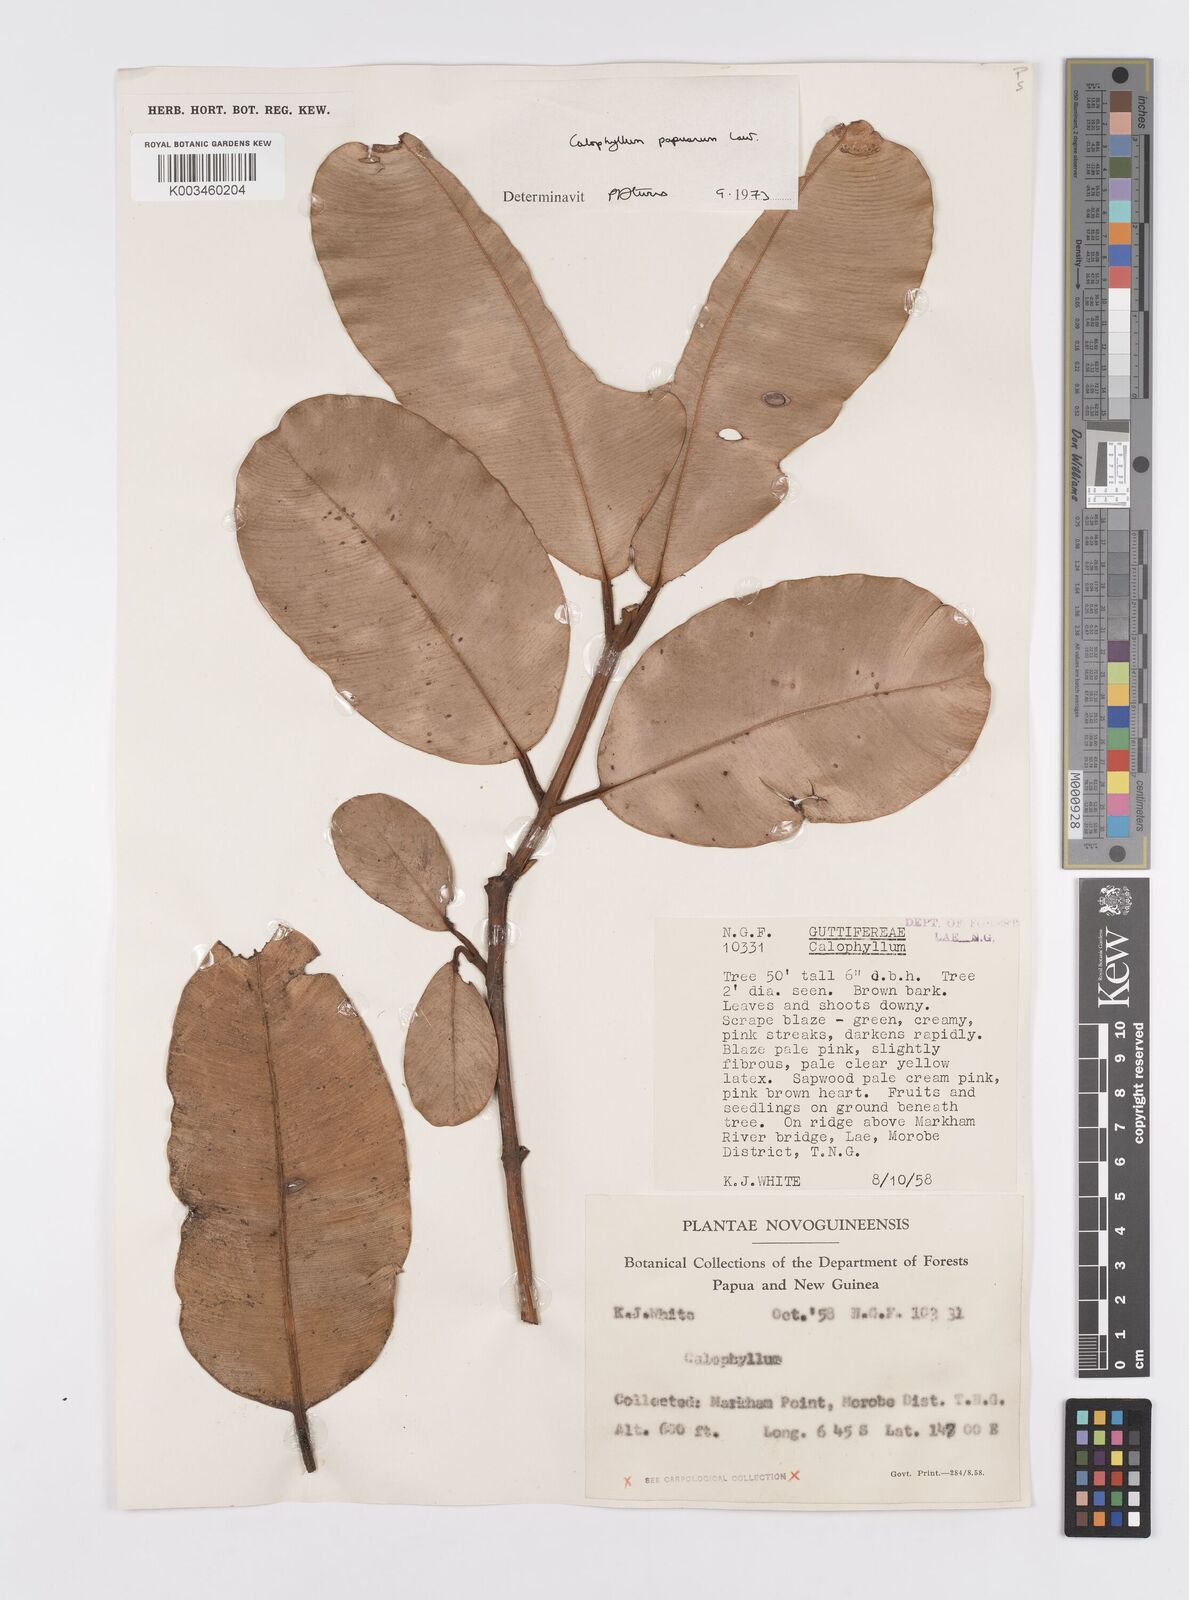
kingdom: Plantae
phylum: Tracheophyta
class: Magnoliopsida
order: Malpighiales
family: Calophyllaceae
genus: Calophyllum
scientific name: Calophyllum papuanum
